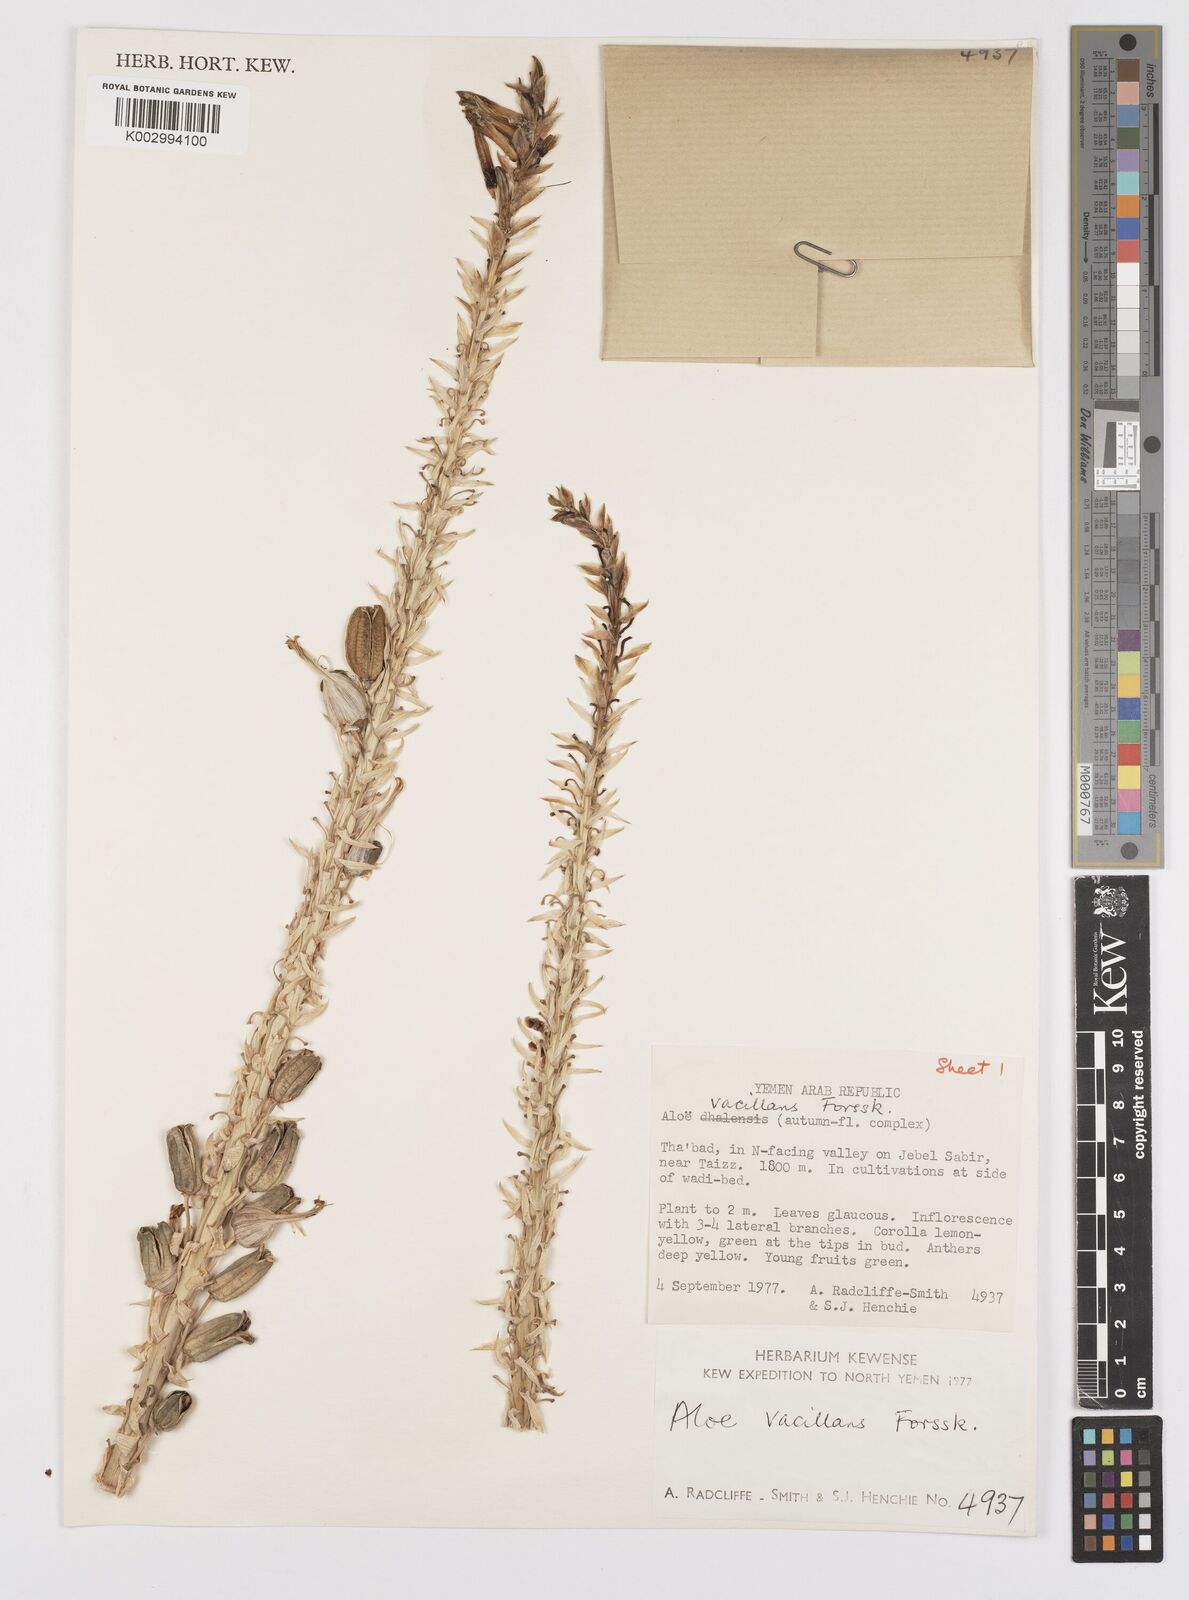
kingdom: Plantae
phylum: Tracheophyta
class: Liliopsida
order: Asparagales
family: Asphodelaceae
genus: Aloe
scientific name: Aloe vacillans
